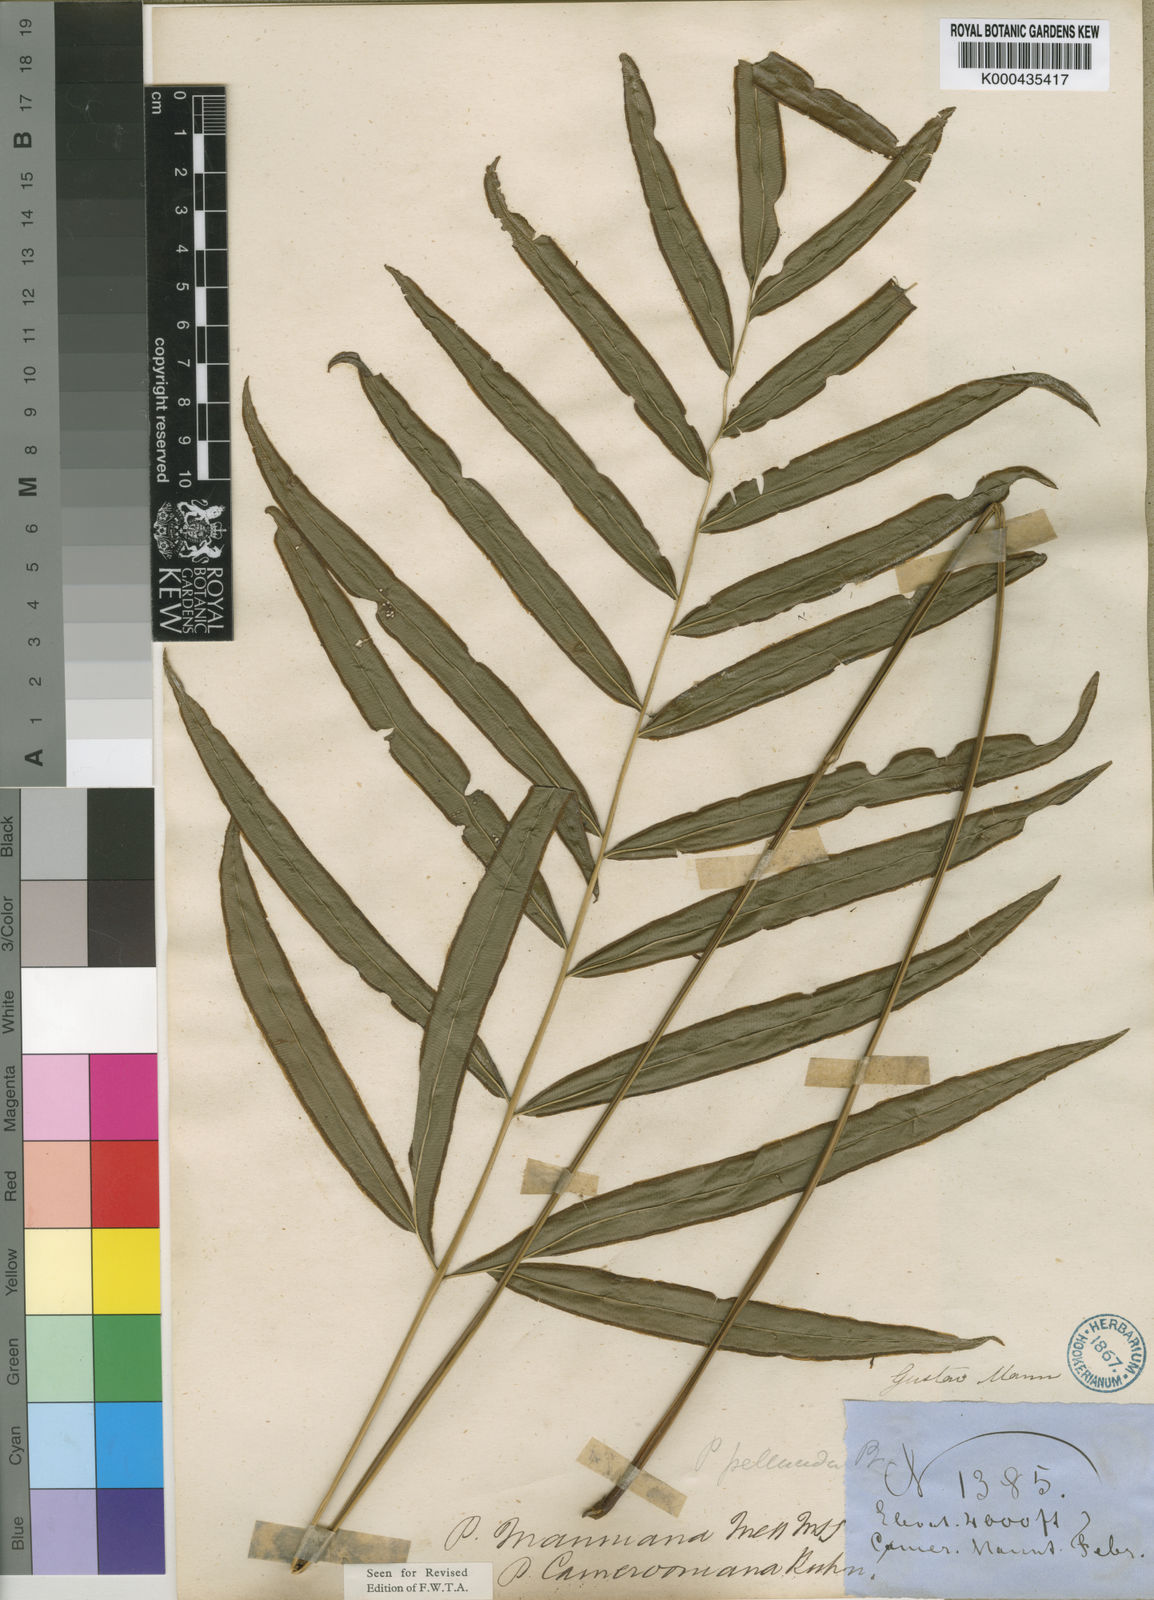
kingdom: Plantae
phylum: Tracheophyta
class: Polypodiopsida
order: Polypodiales
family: Pteridaceae
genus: Pteris
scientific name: Pteris camerooniana
